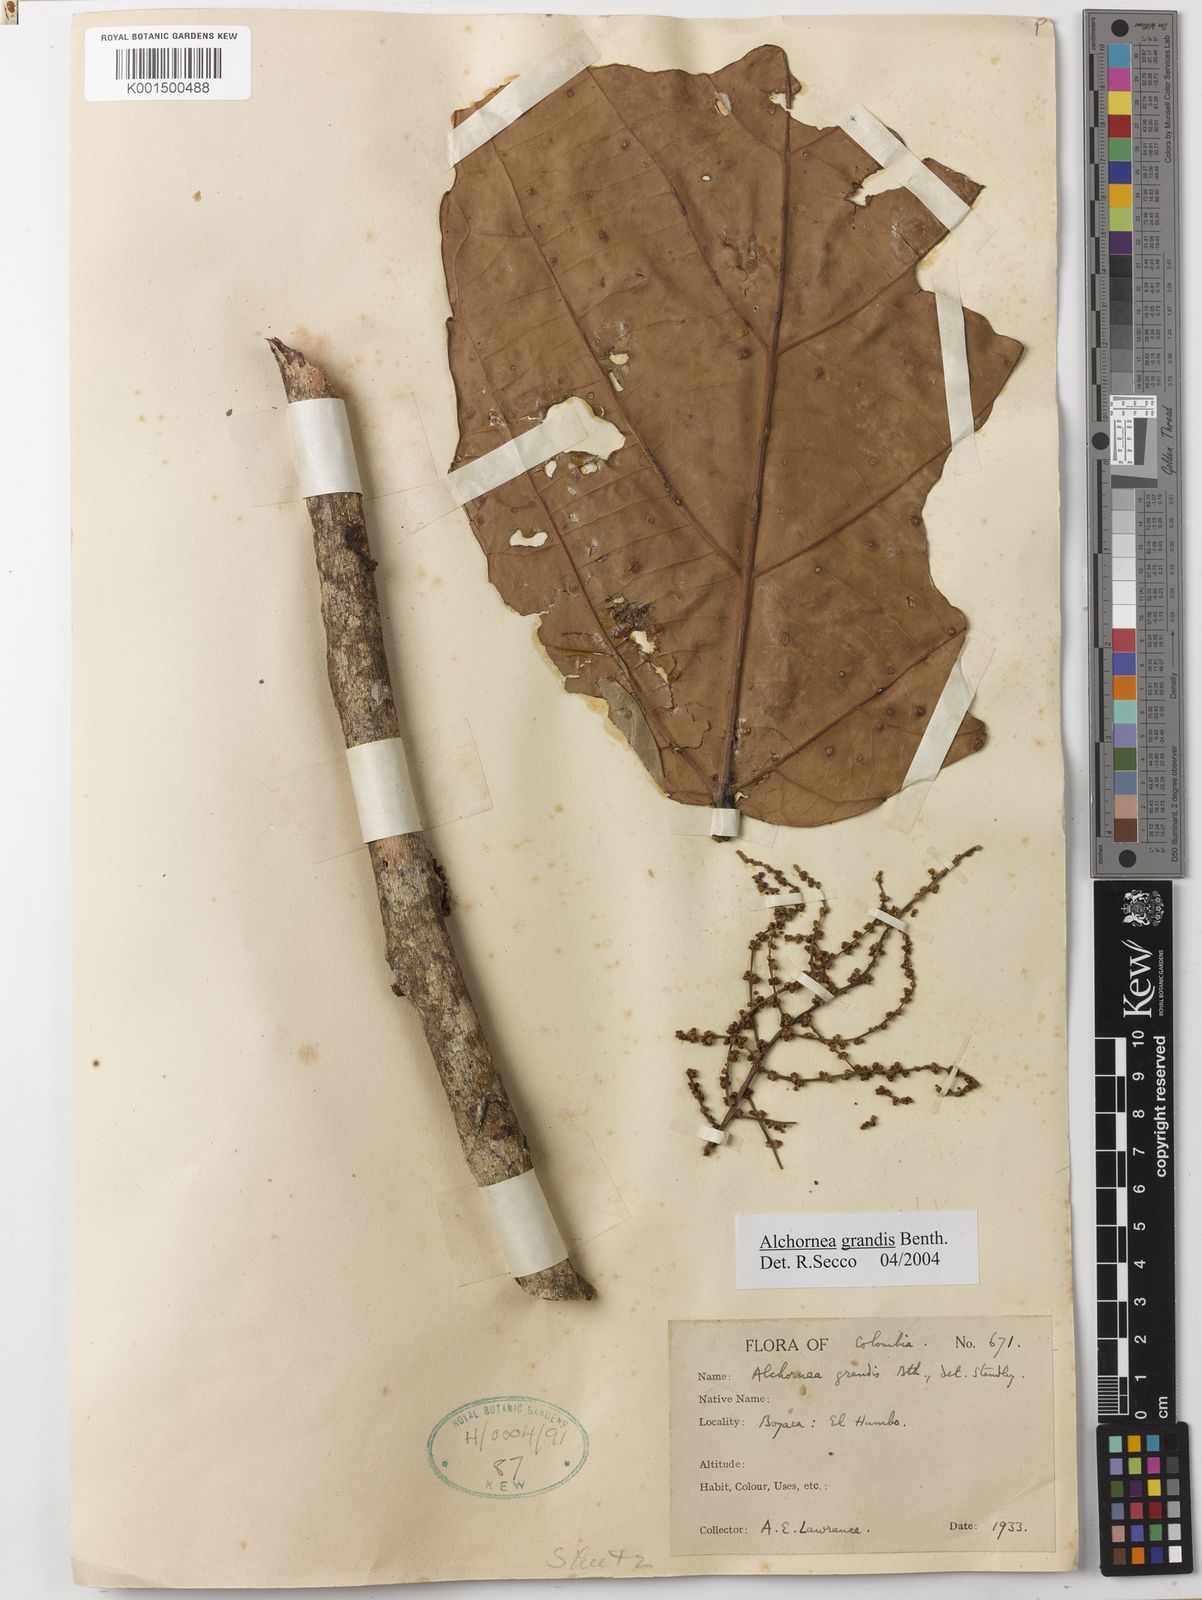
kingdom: Plantae
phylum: Tracheophyta
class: Magnoliopsida
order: Malpighiales
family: Euphorbiaceae
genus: Alchornea
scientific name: Alchornea grandis
